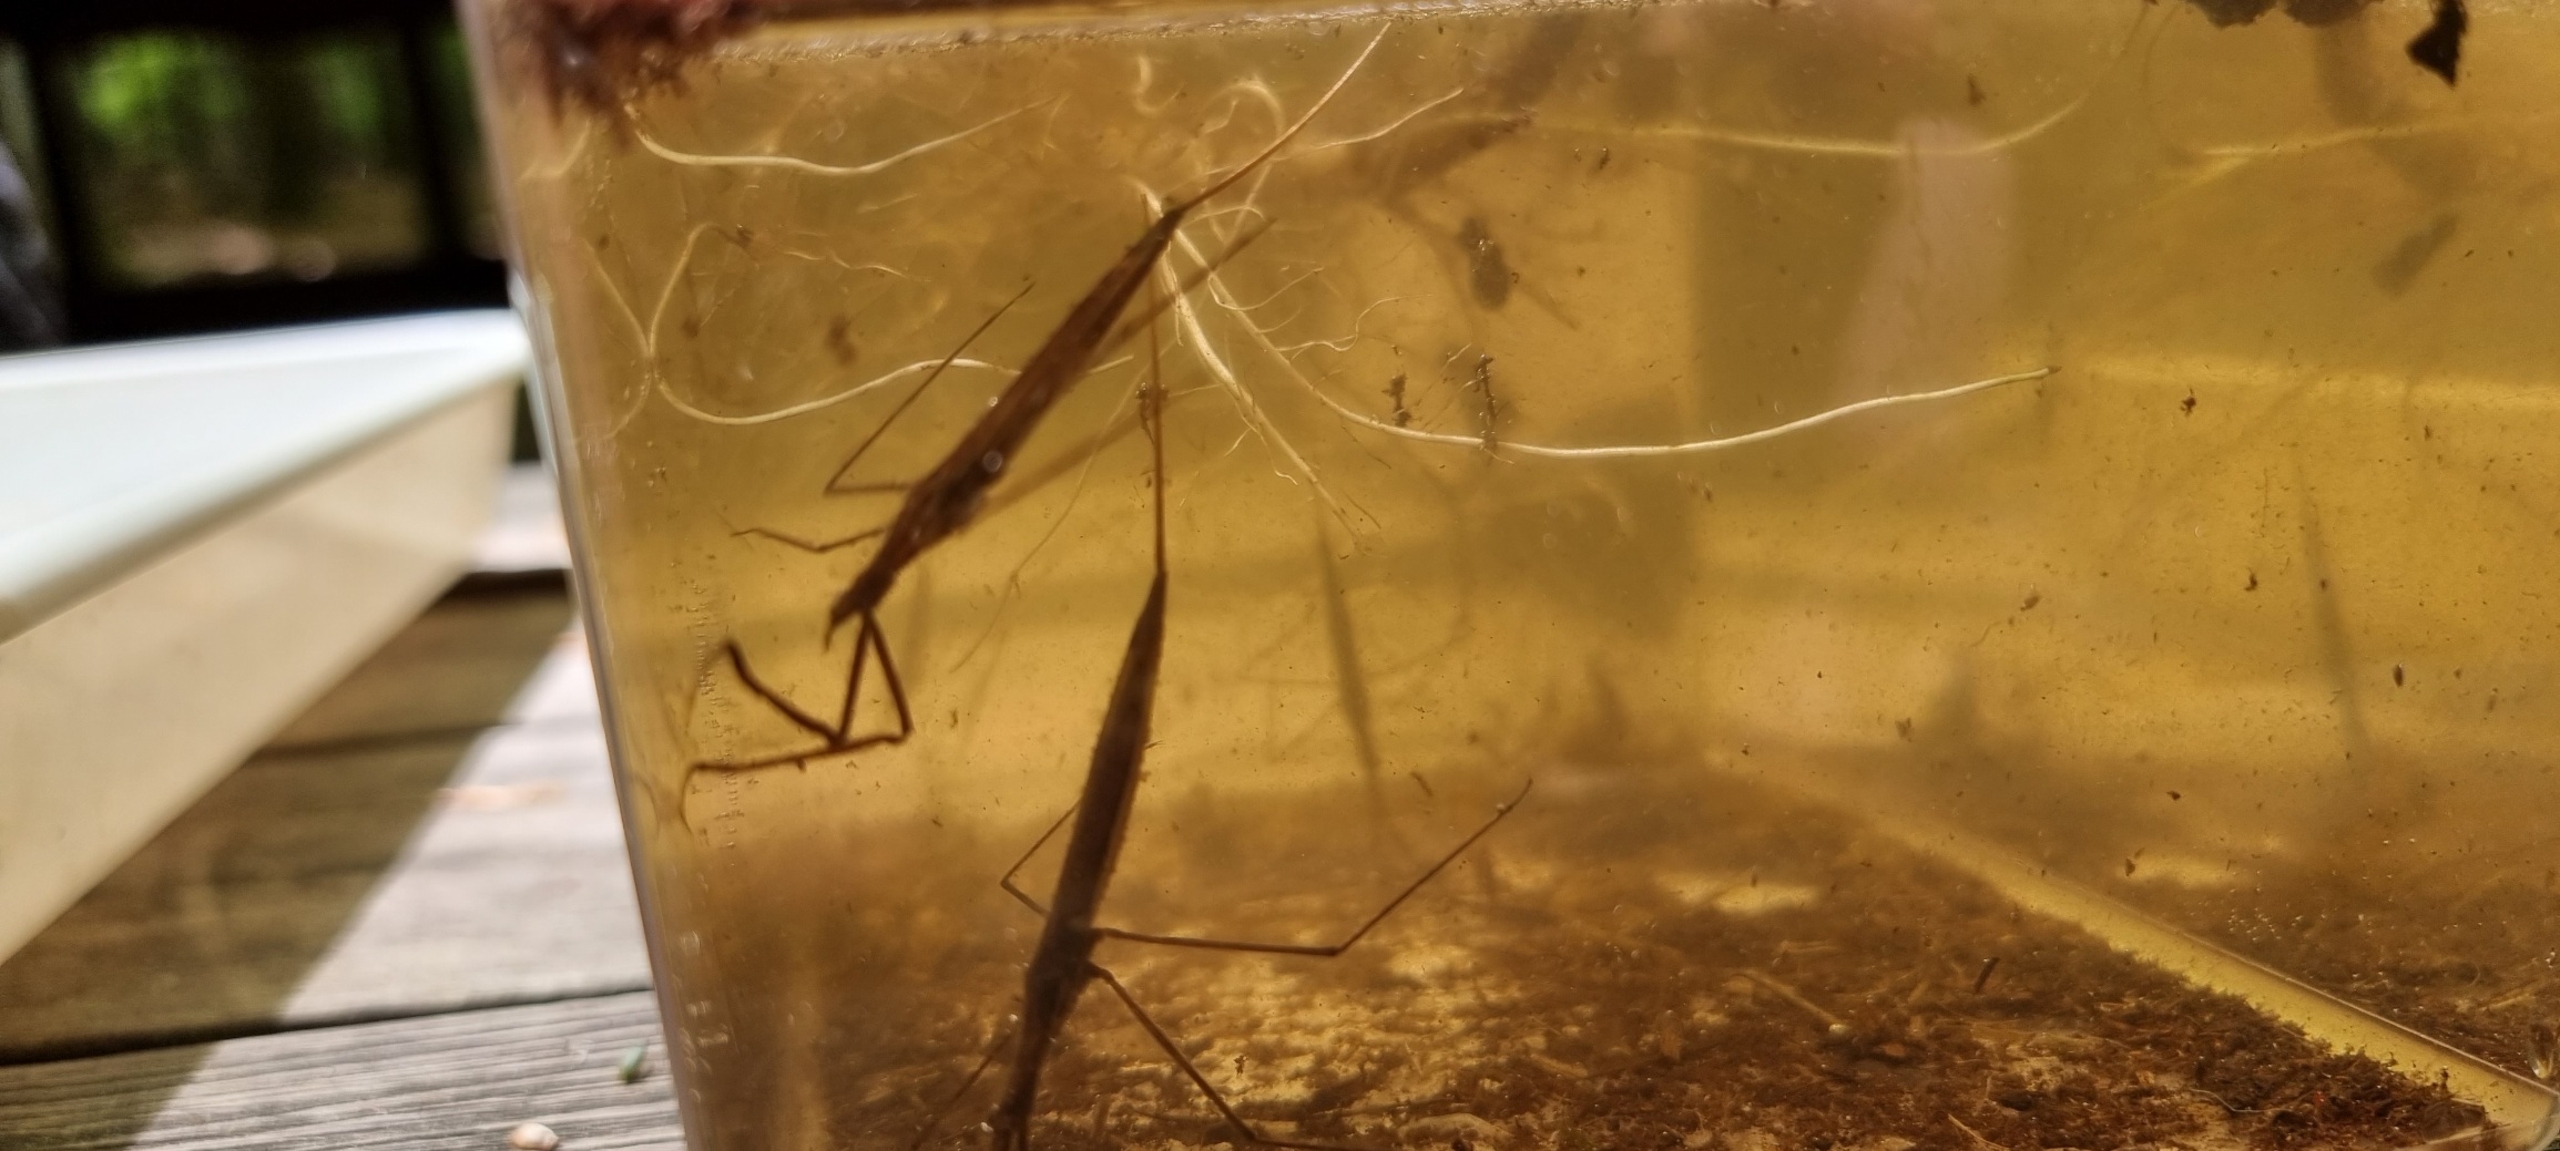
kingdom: Animalia
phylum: Arthropoda
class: Insecta
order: Hemiptera
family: Nepidae
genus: Ranatra
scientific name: Ranatra linearis
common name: Stavtæge
